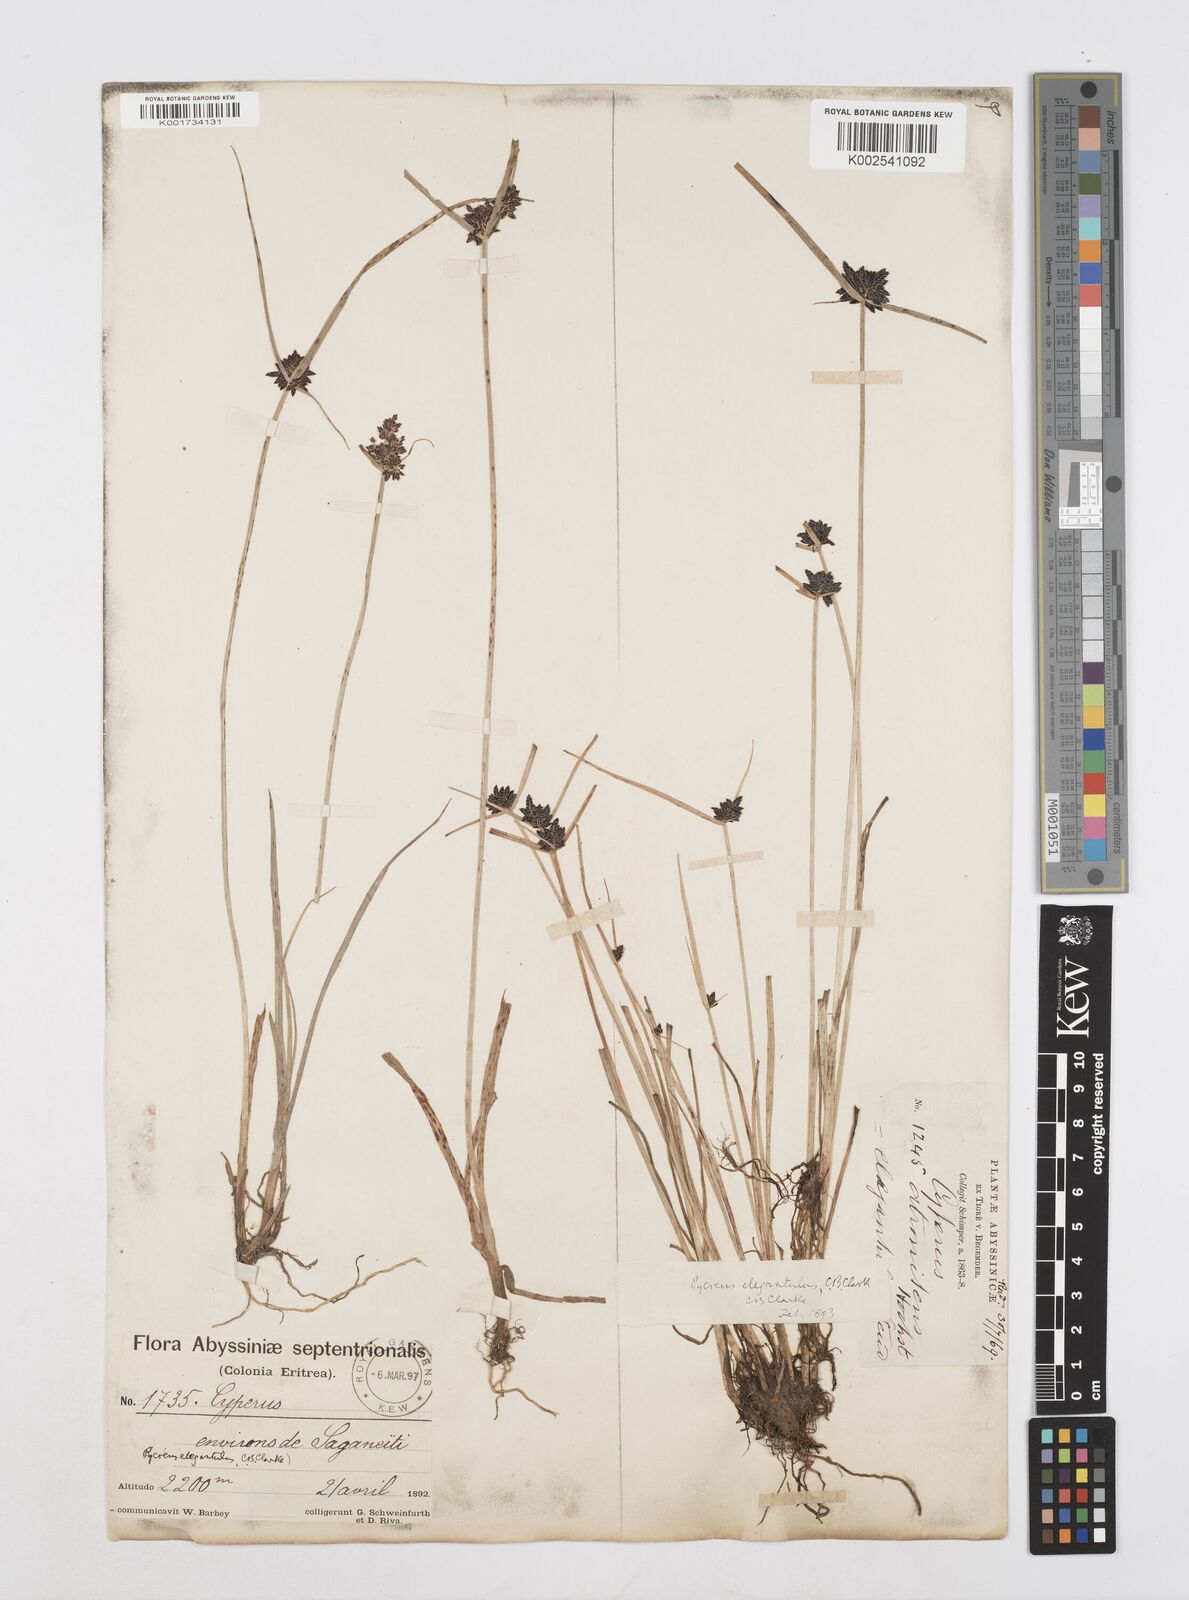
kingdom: Plantae
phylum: Tracheophyta
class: Liliopsida
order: Poales
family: Cyperaceae
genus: Cyperus
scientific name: Cyperus elegantulus
